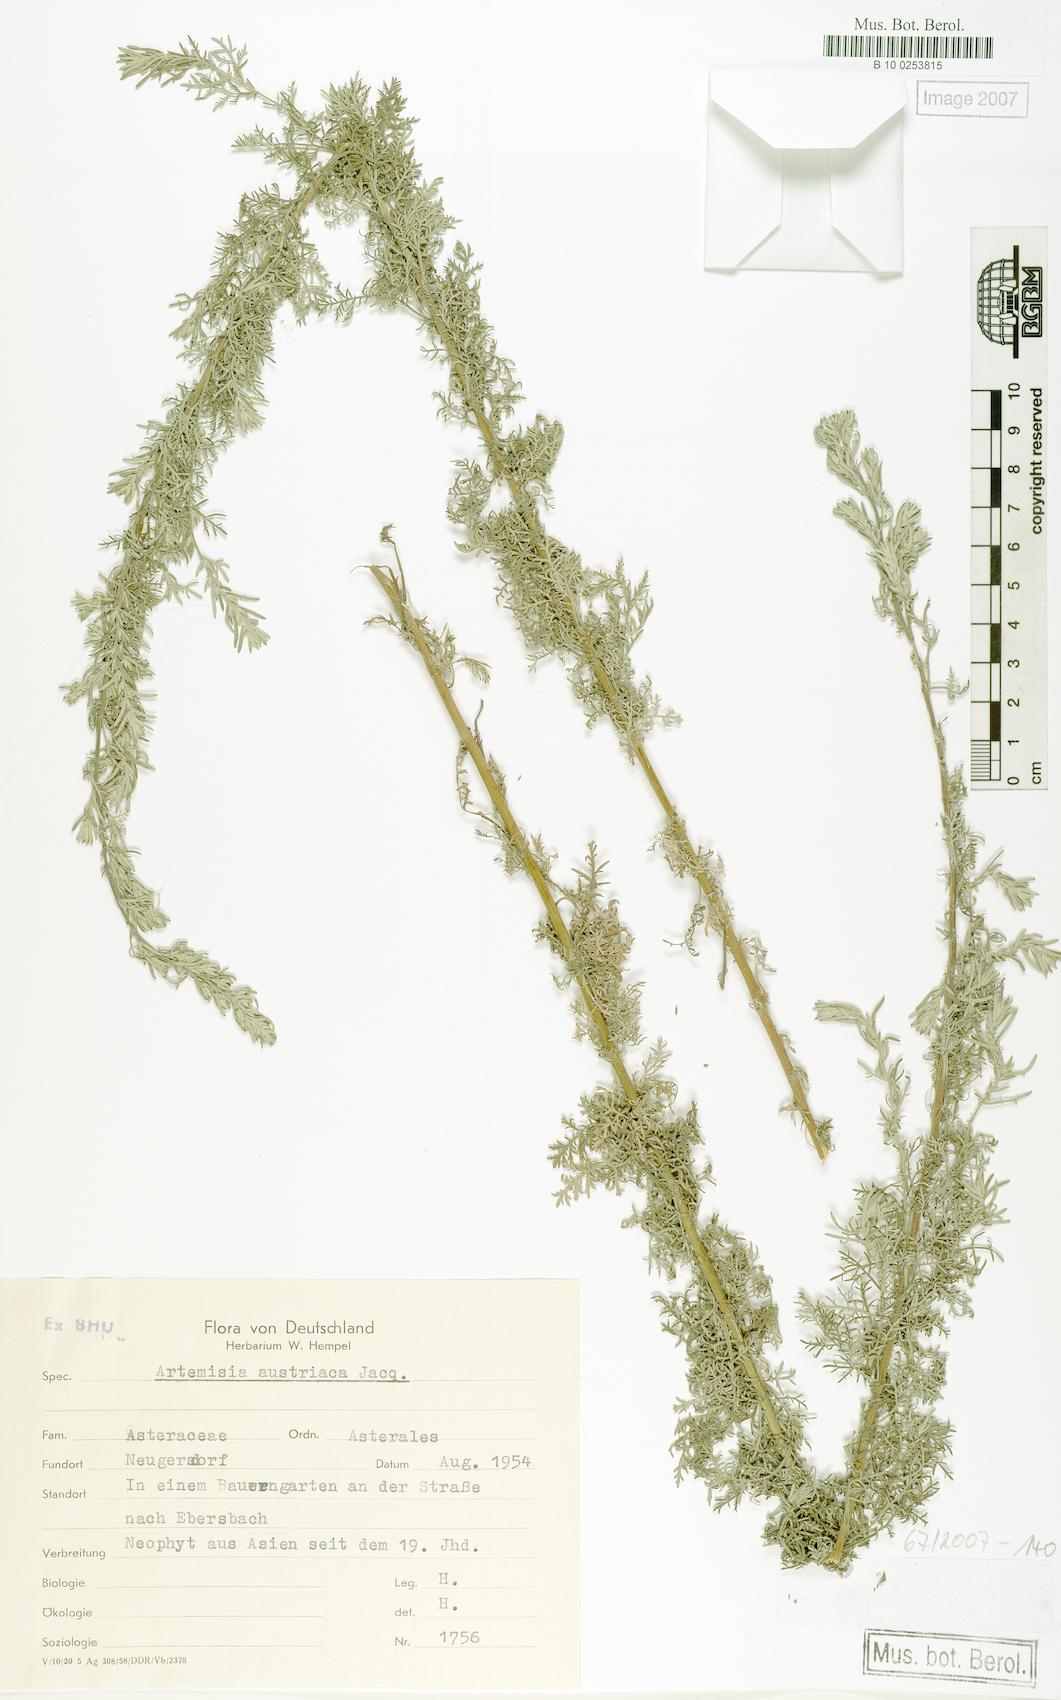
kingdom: Plantae
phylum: Tracheophyta
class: Magnoliopsida
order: Asterales
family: Asteraceae
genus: Artemisia
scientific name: Artemisia austriaca
